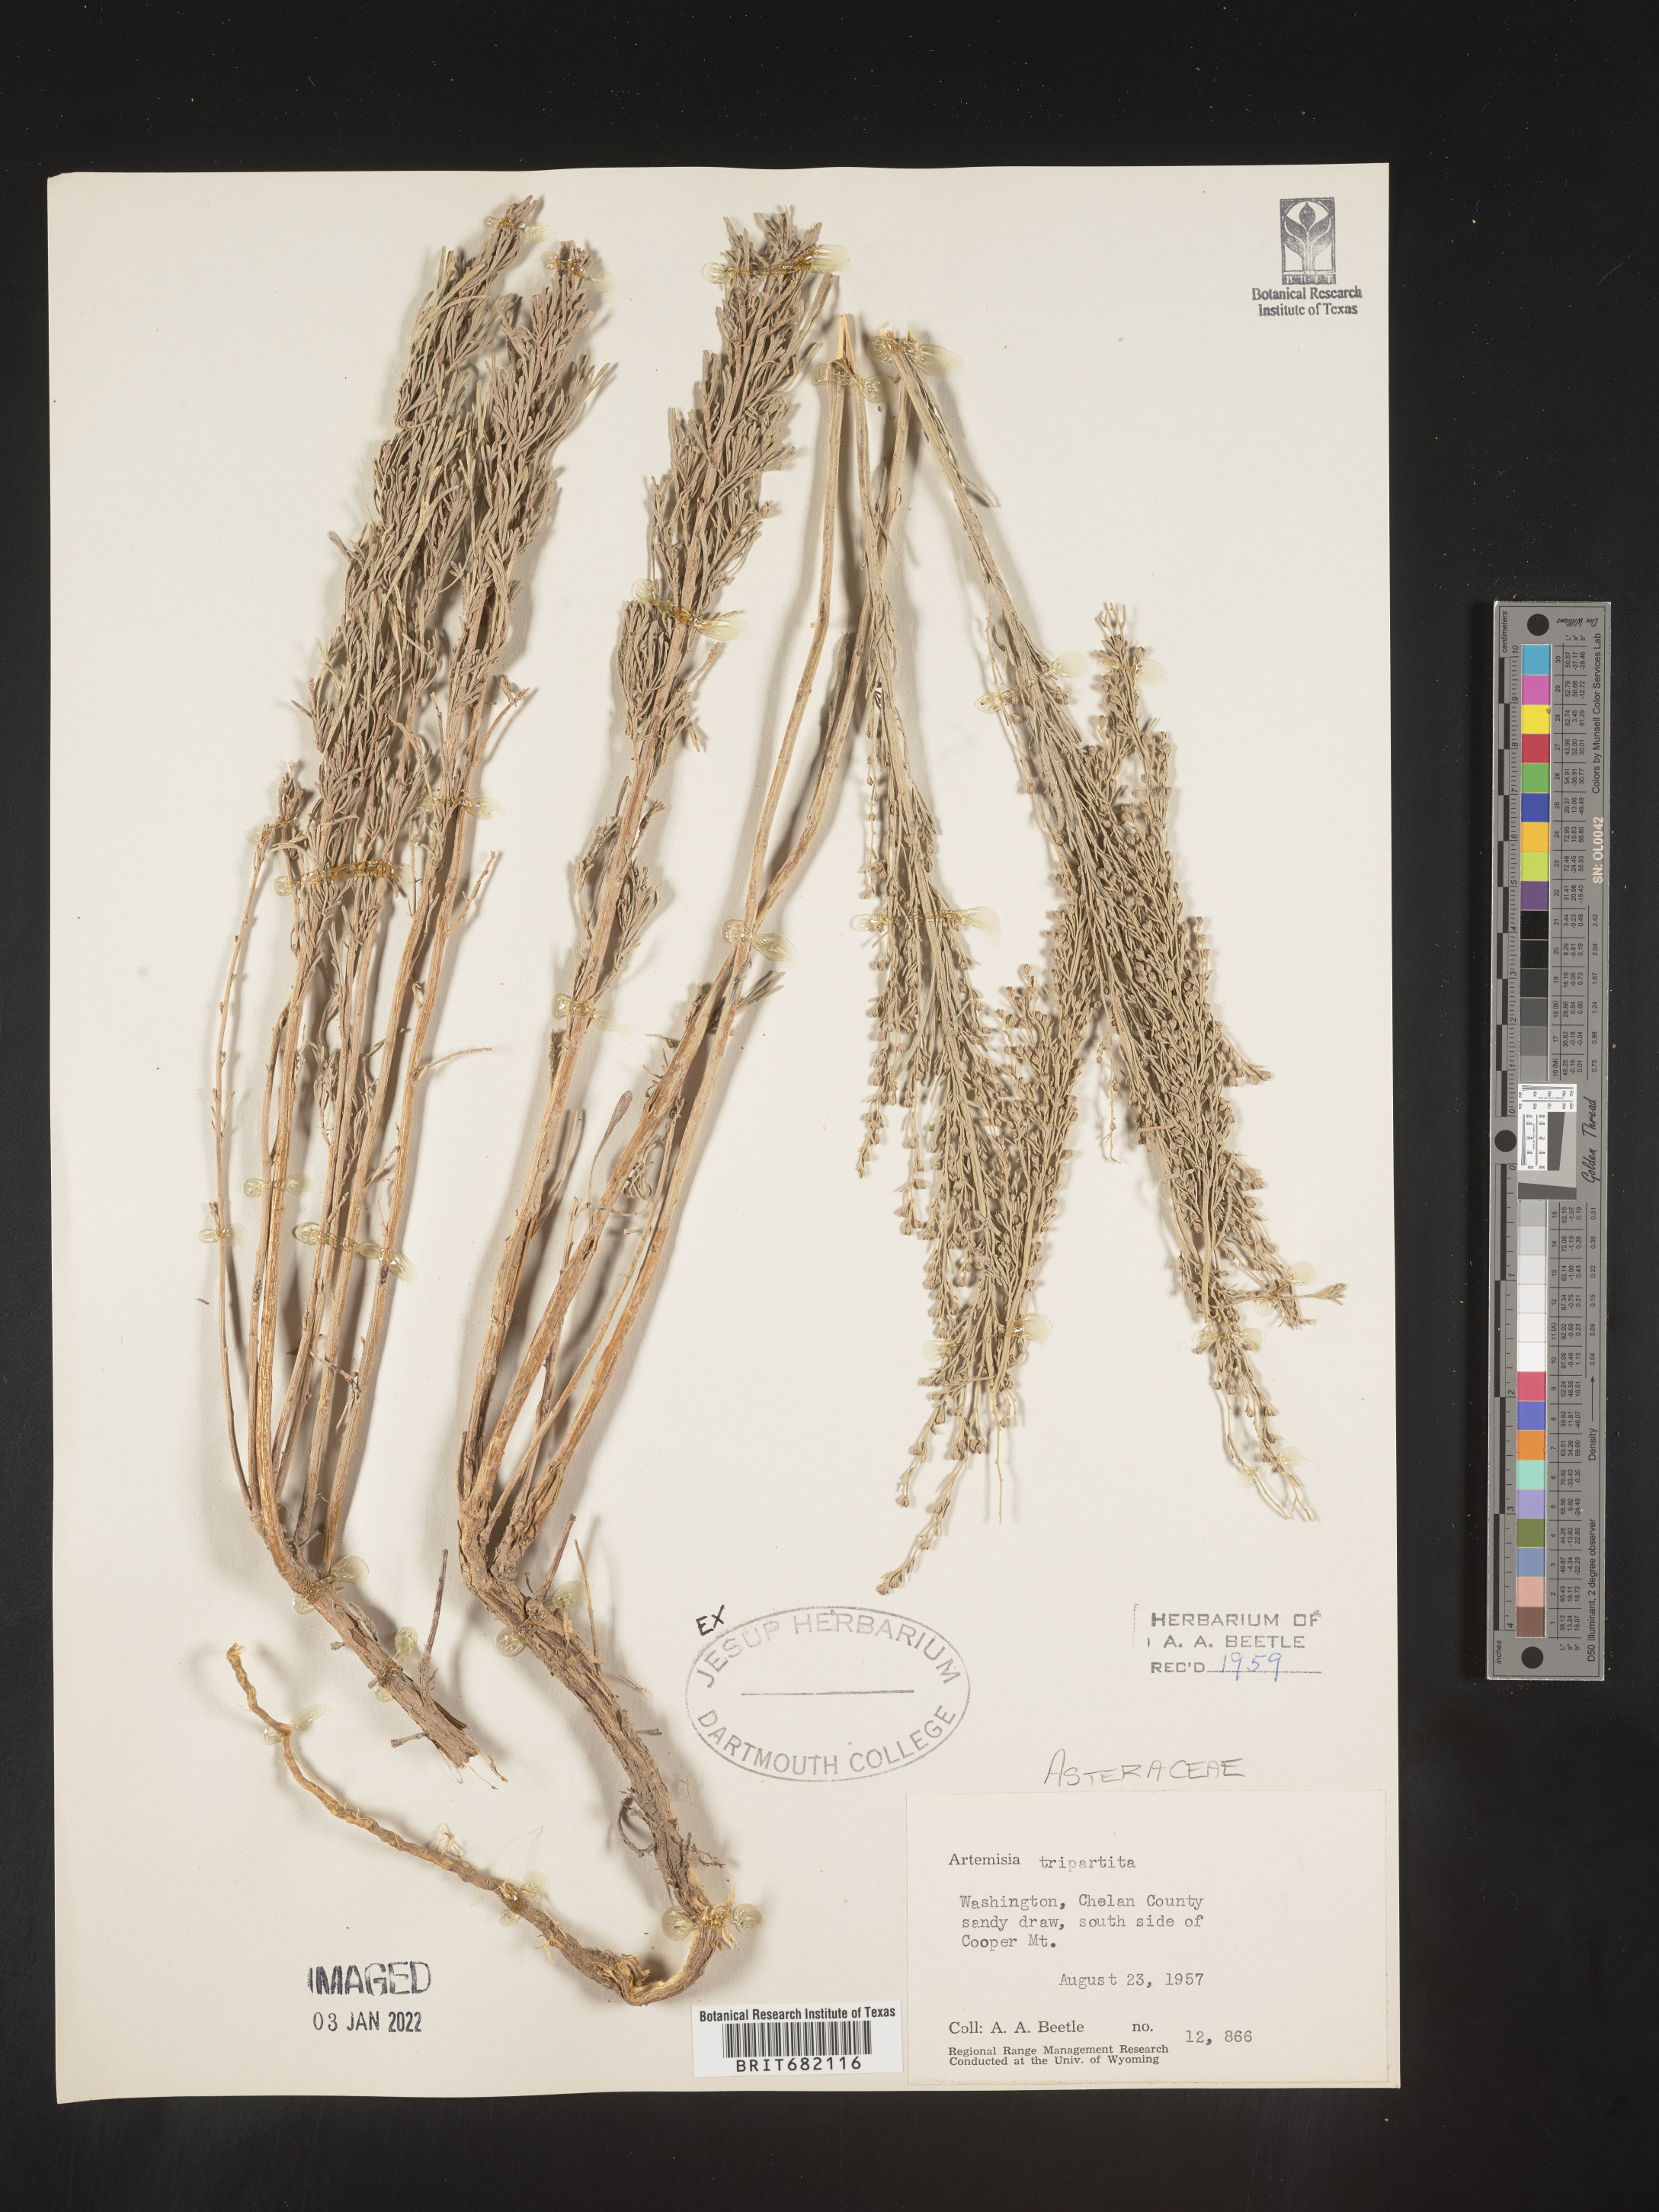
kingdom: Plantae
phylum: Tracheophyta
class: Magnoliopsida
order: Asterales
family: Asteraceae
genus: Artemisia
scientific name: Artemisia tripartita
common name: Three-tip sagebrush
